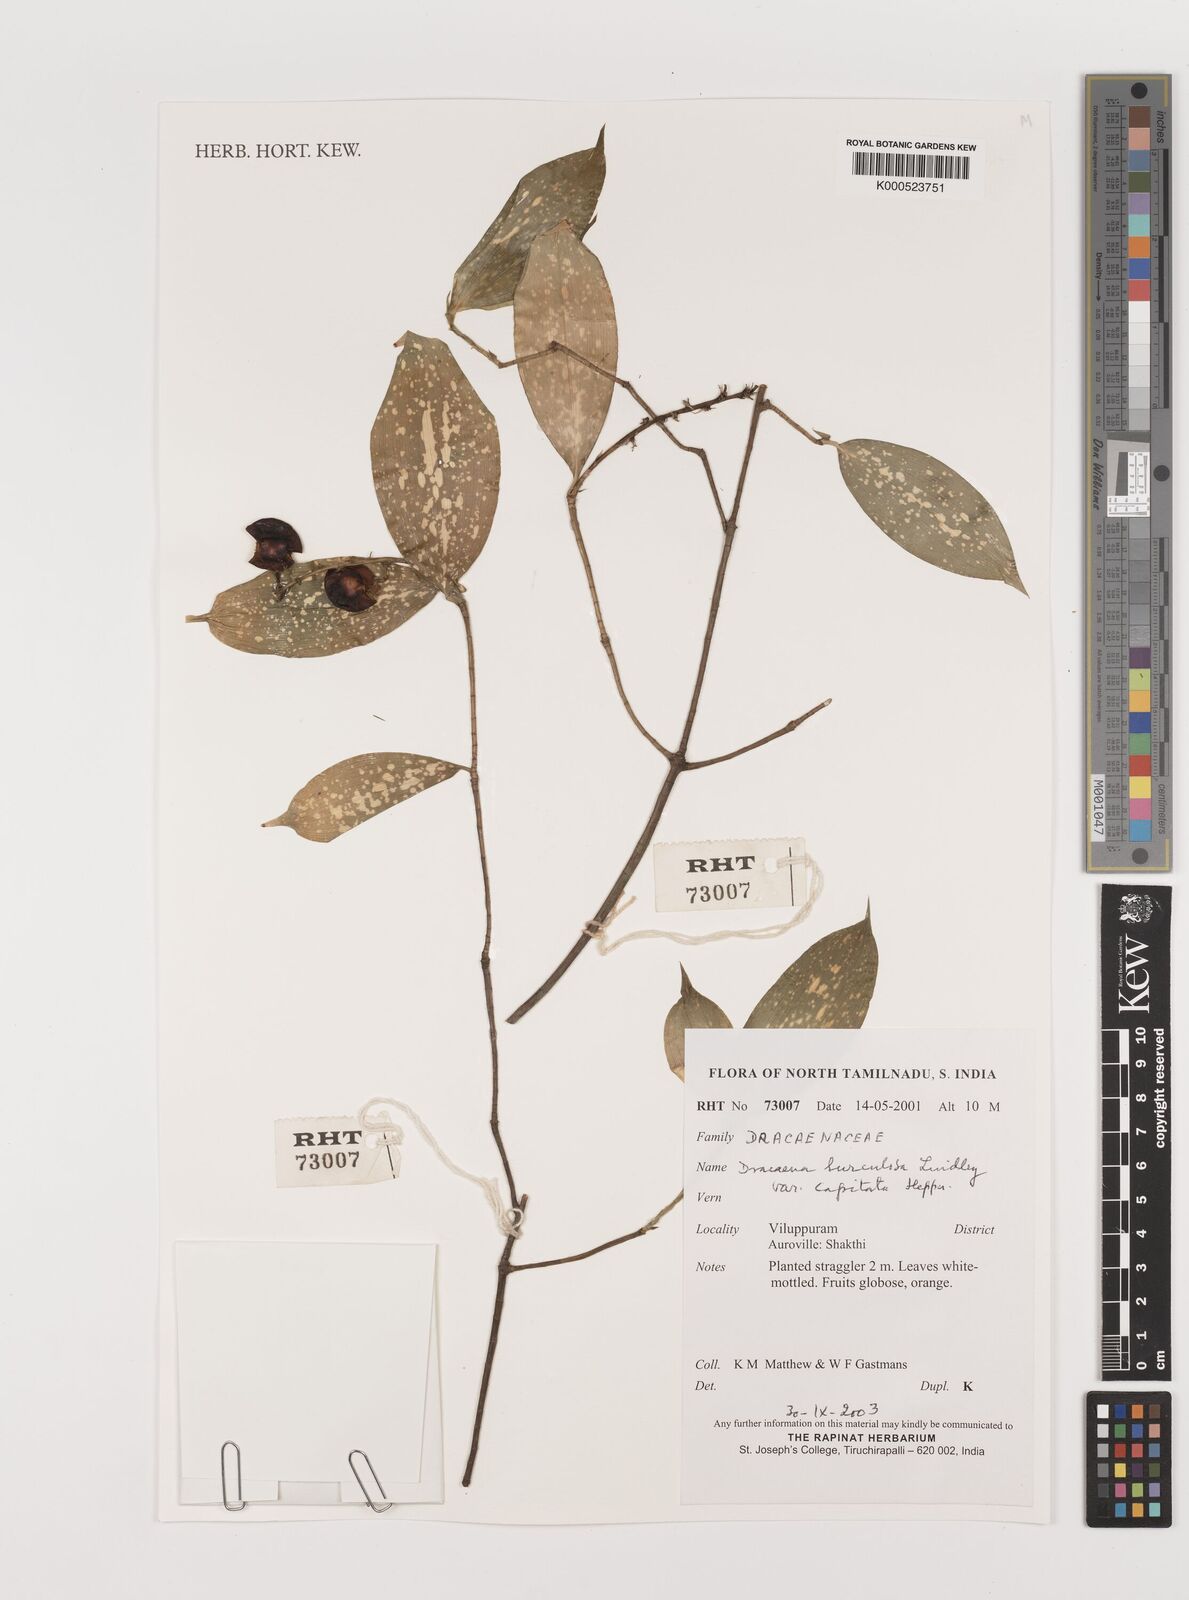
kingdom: Plantae
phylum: Tracheophyta
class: Liliopsida
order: Asparagales
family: Asparagaceae
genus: Dracaena
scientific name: Dracaena surculosa
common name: Spotted dracaena
